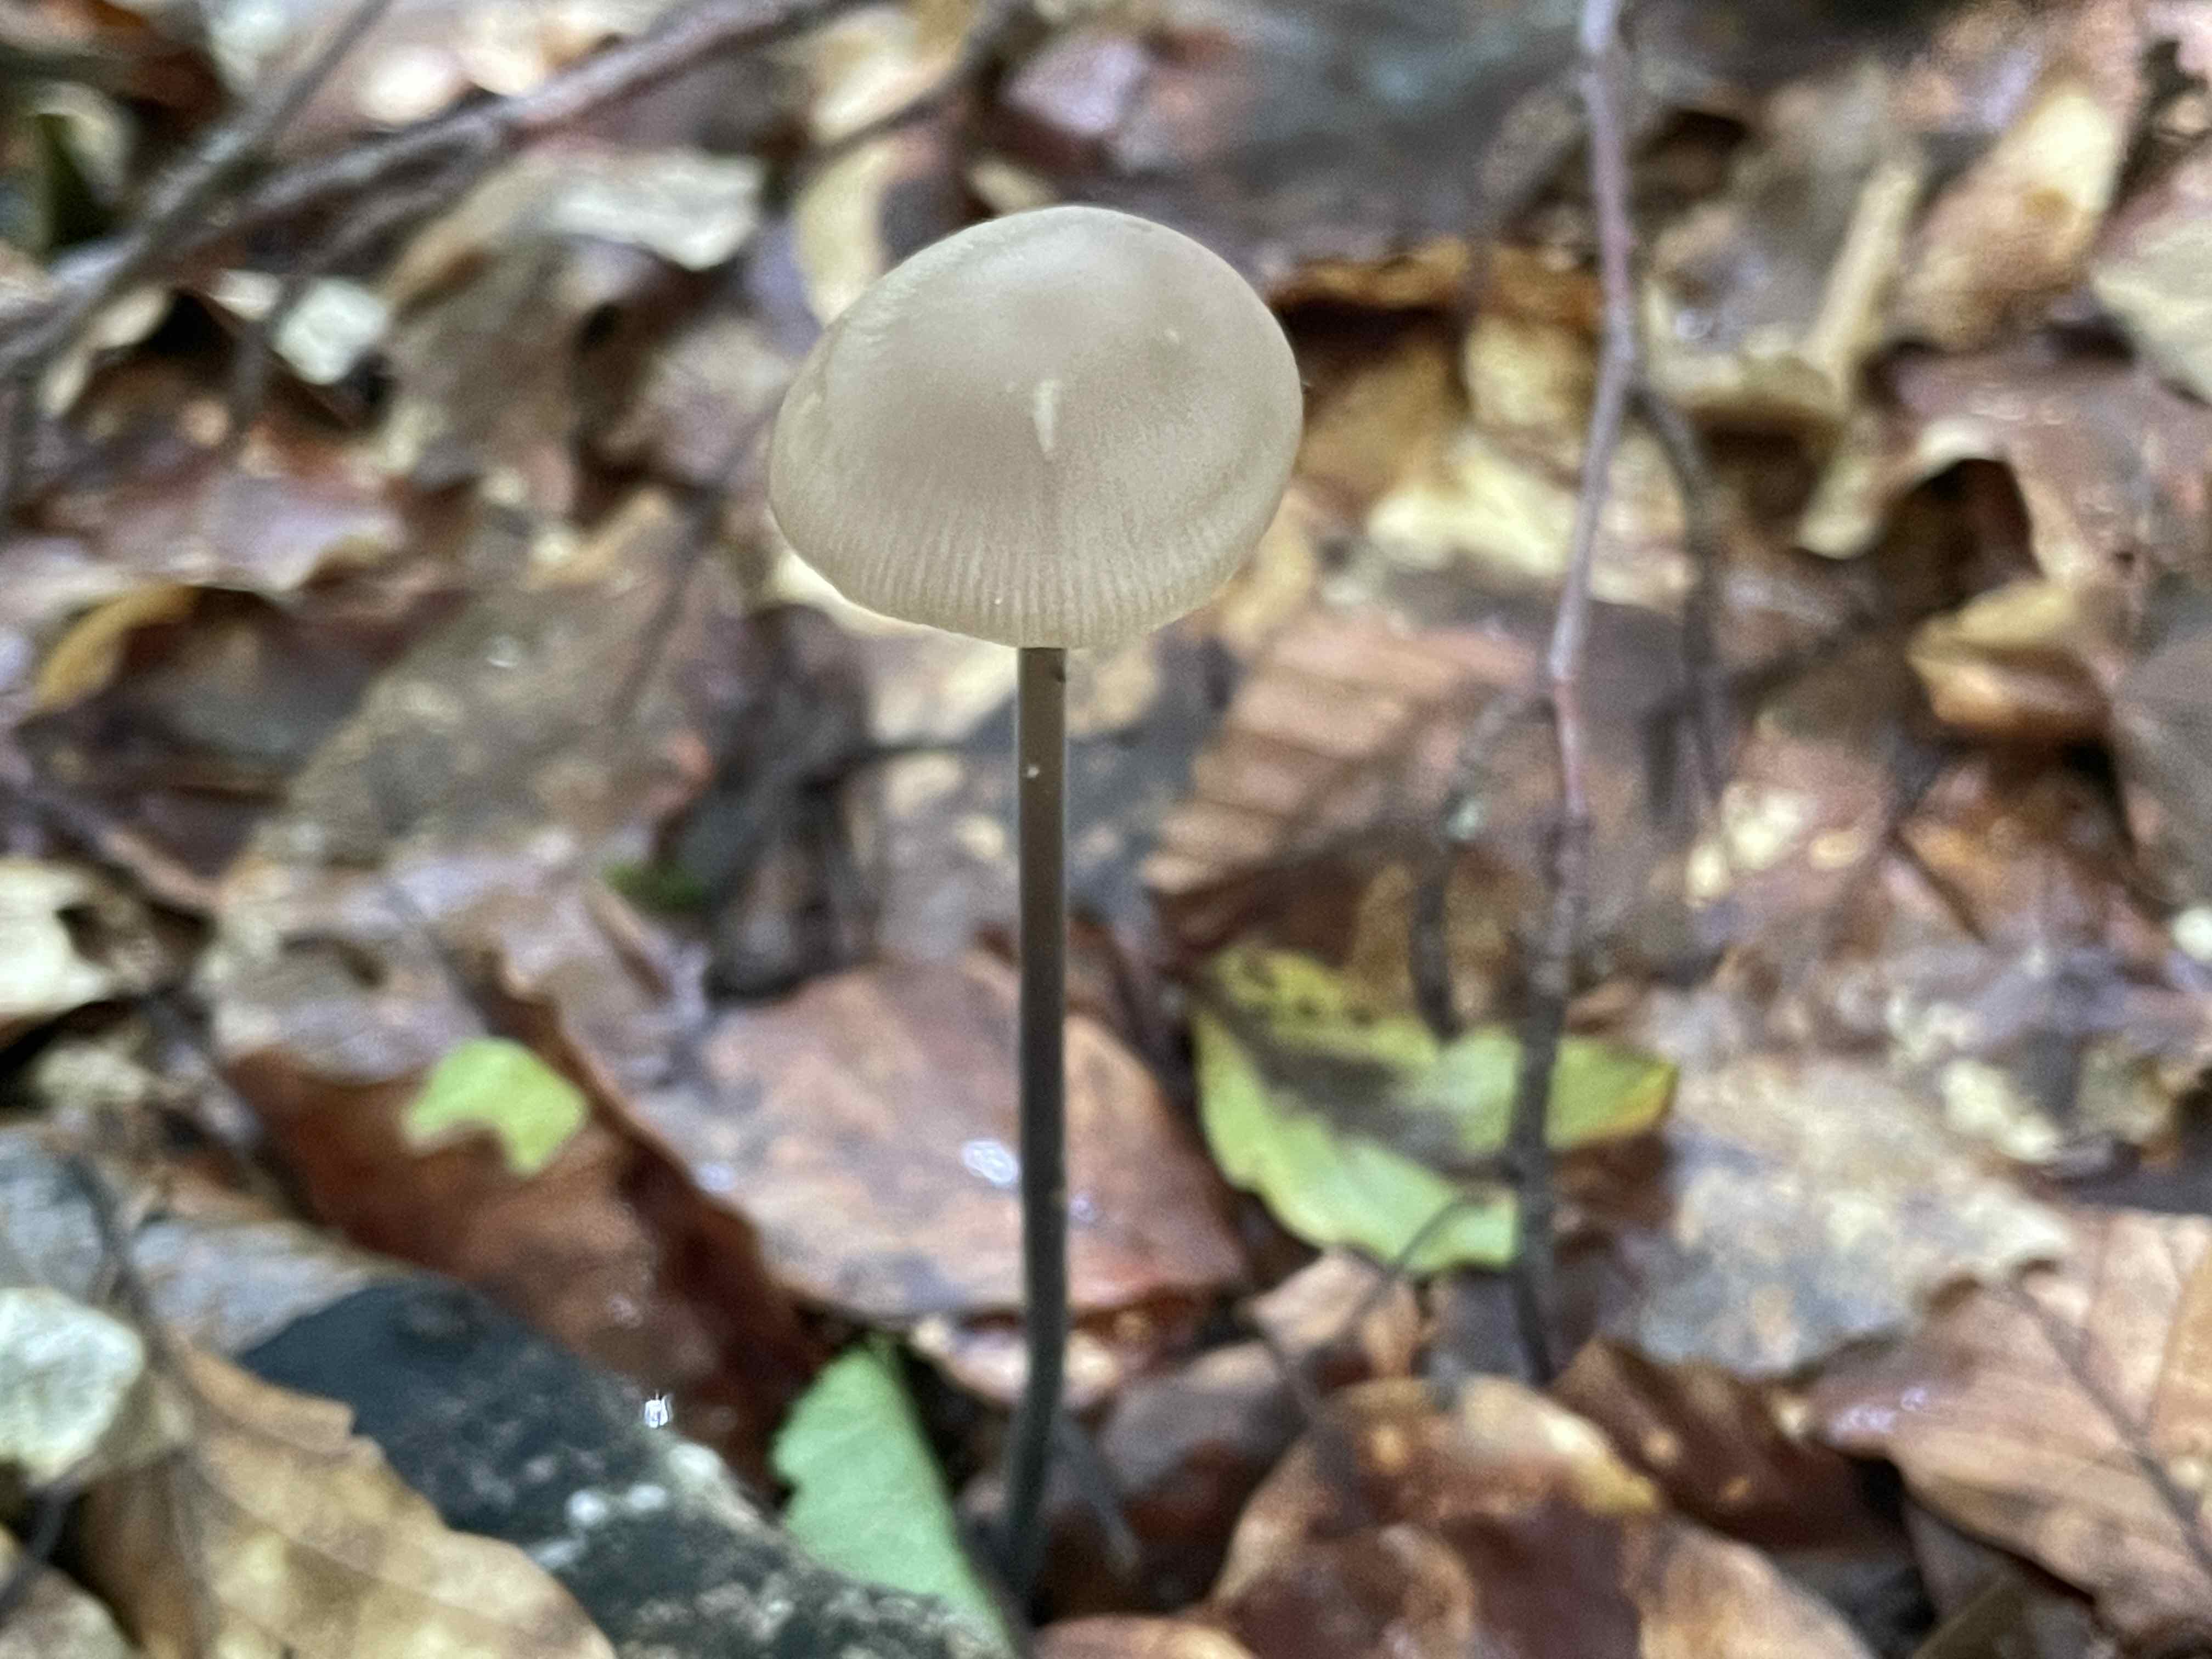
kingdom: Fungi
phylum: Basidiomycota
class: Agaricomycetes
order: Agaricales
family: Omphalotaceae
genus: Mycetinis
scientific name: Mycetinis alliaceus
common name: stor løghat
